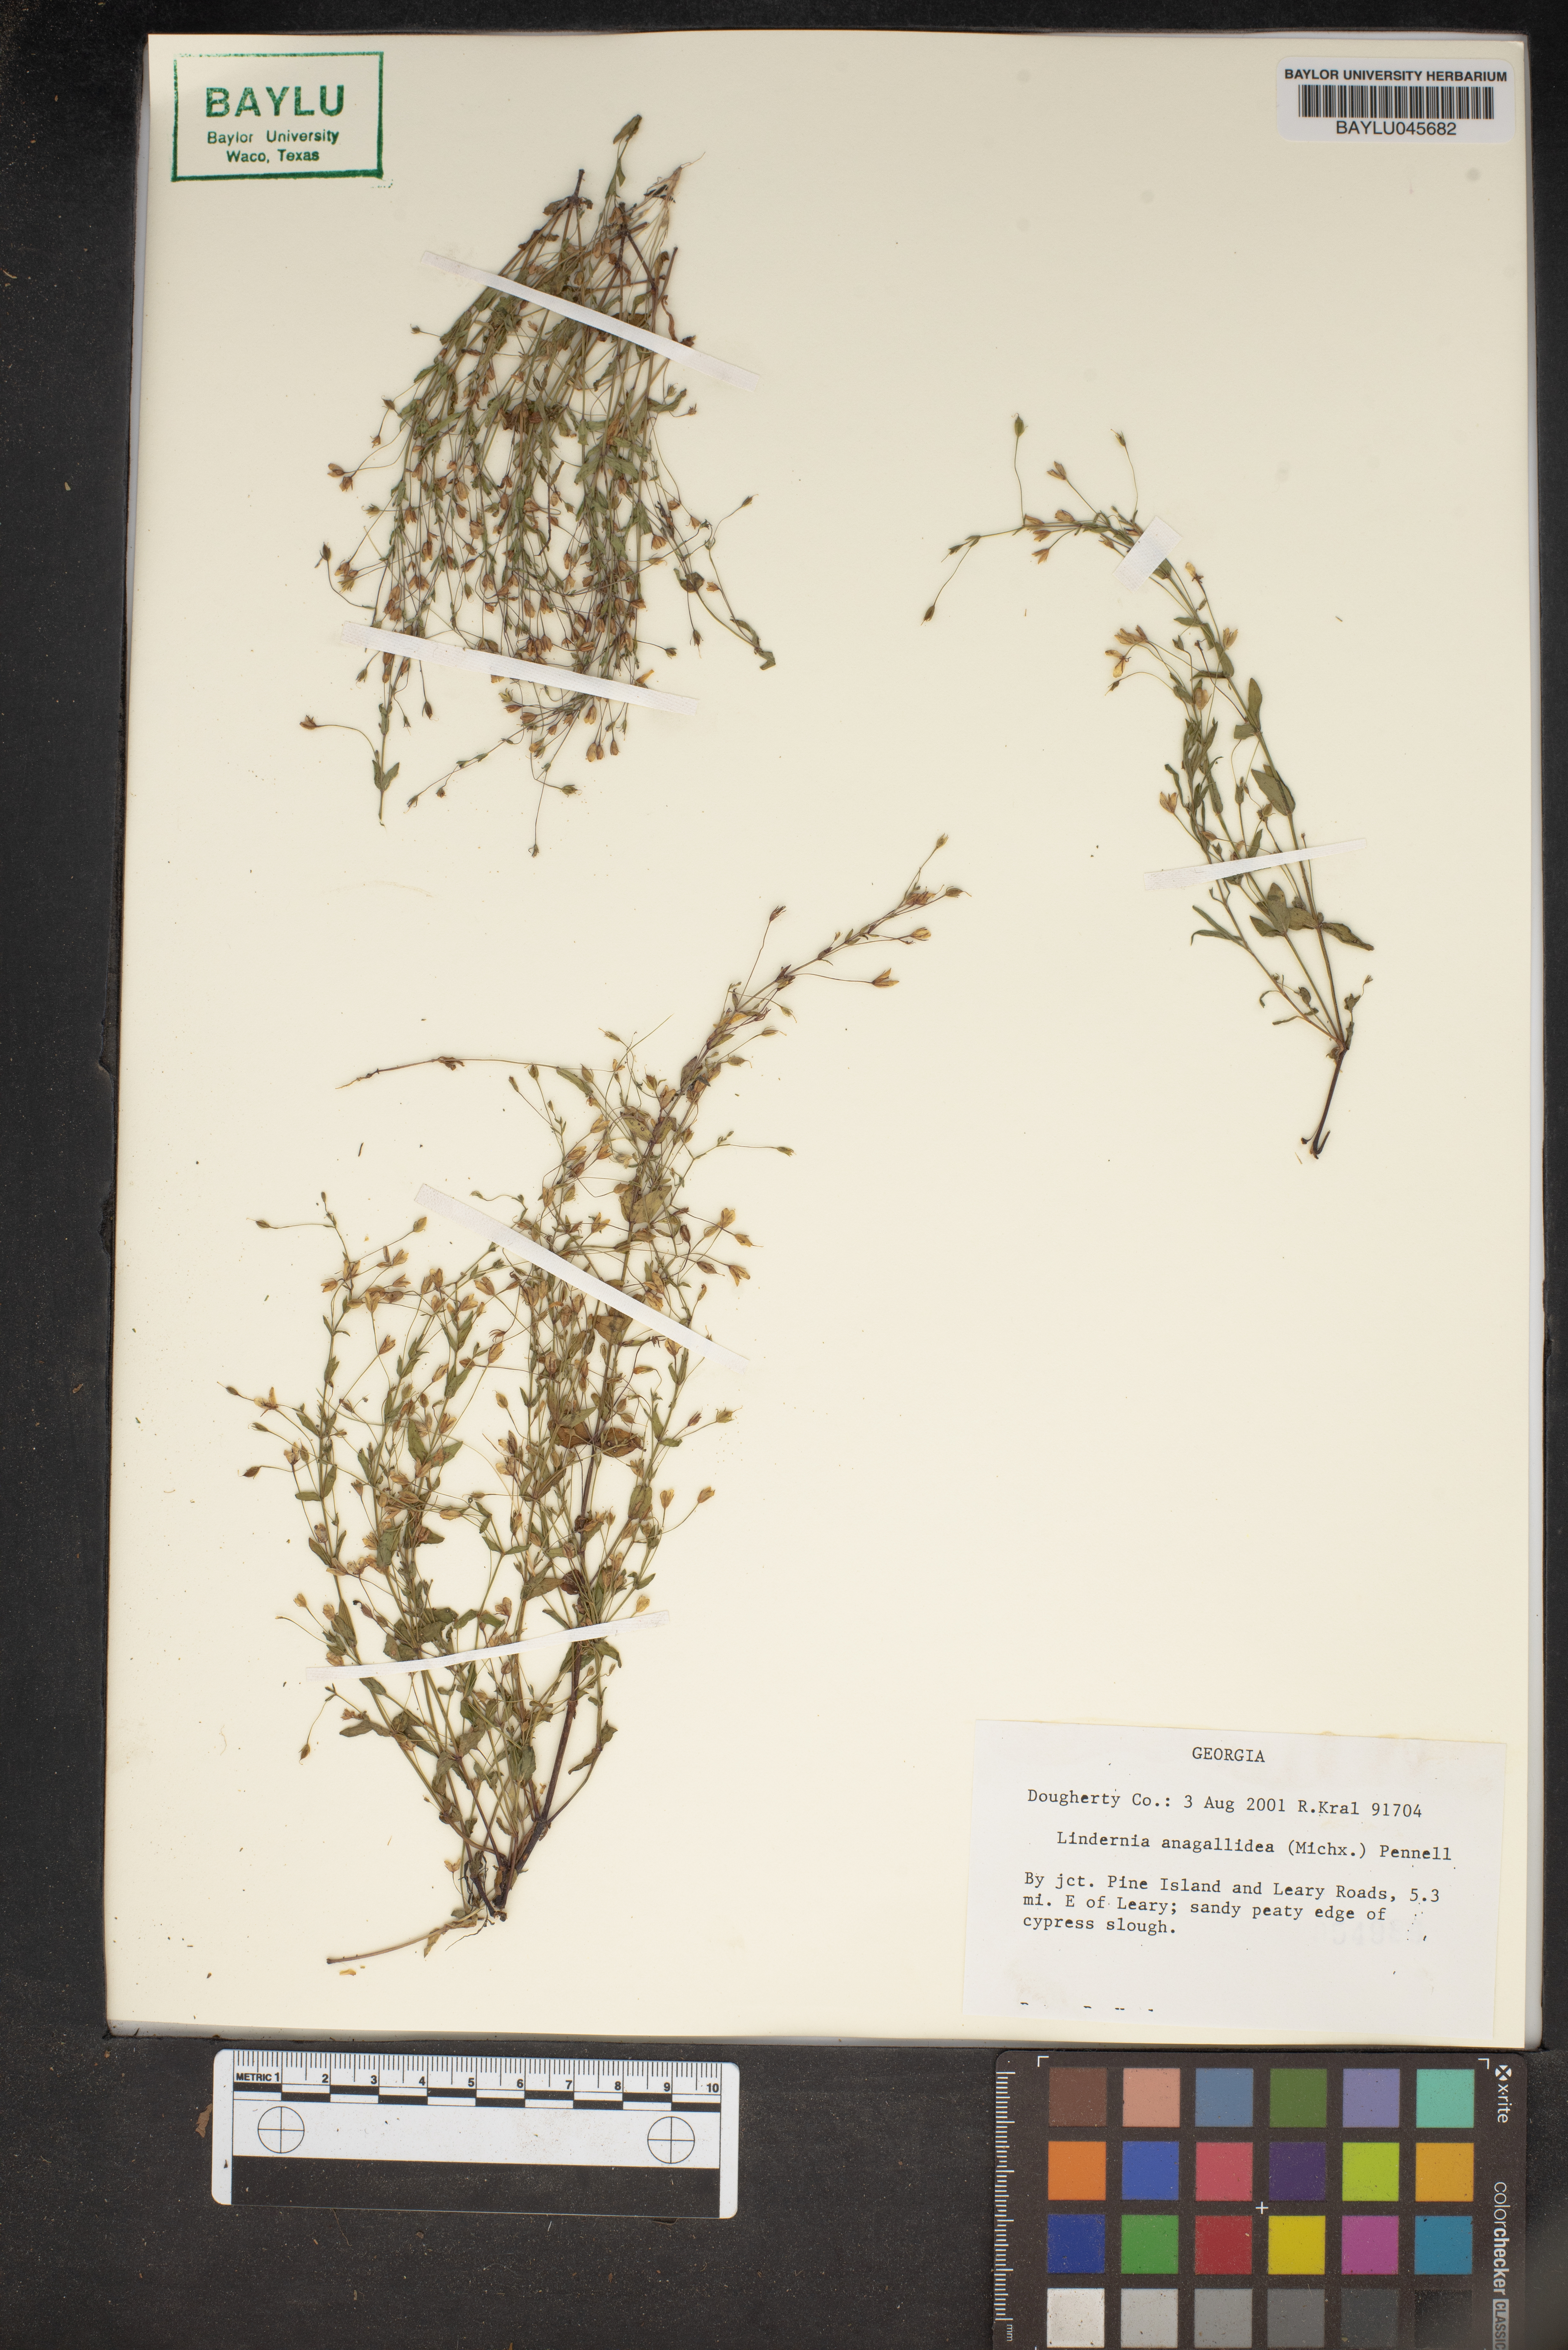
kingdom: Plantae
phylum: Tracheophyta
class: Magnoliopsida
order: Lamiales
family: Linderniaceae
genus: Lindernia
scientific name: Lindernia dubia
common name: Annual false pimpernel
